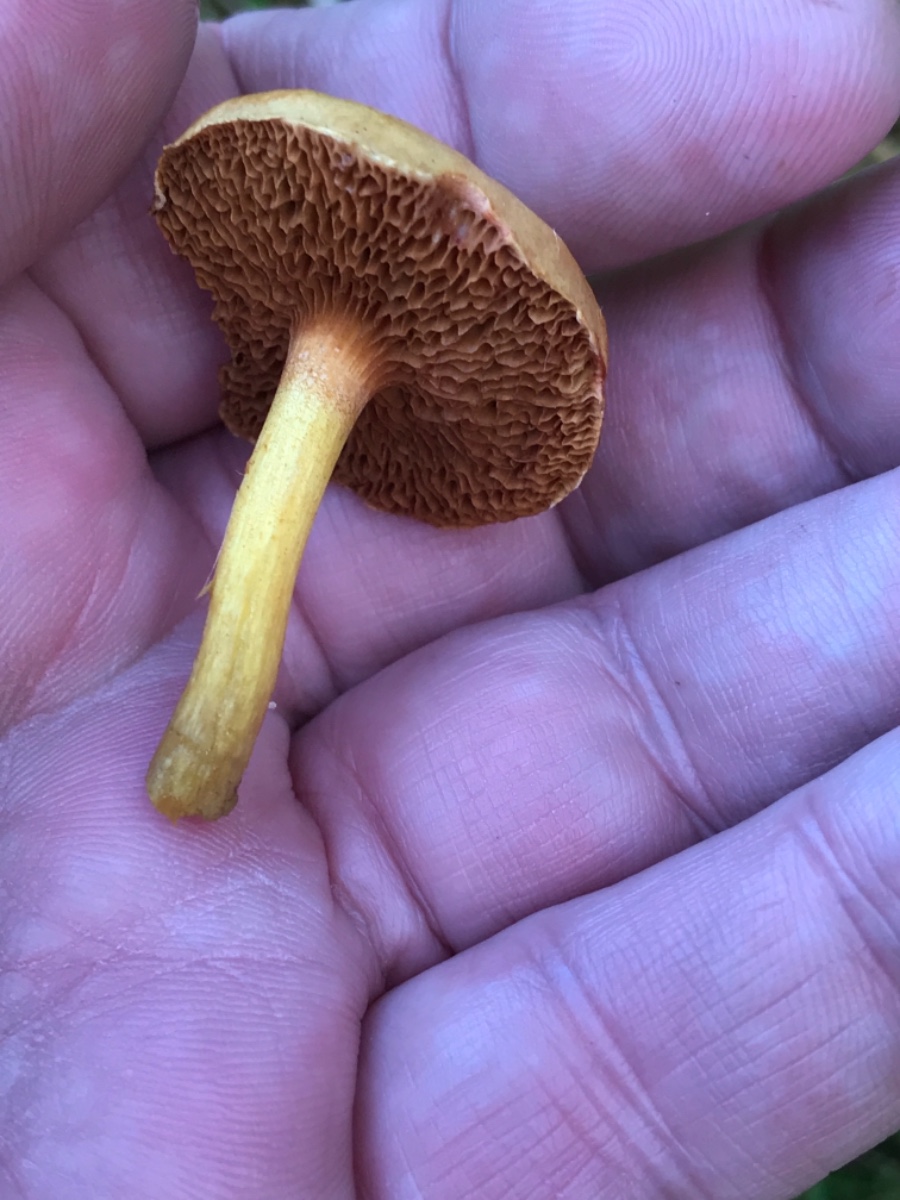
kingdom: Fungi
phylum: Basidiomycota
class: Agaricomycetes
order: Boletales
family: Boletaceae
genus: Chalciporus
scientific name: Chalciporus piperatus
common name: peberrørhat
